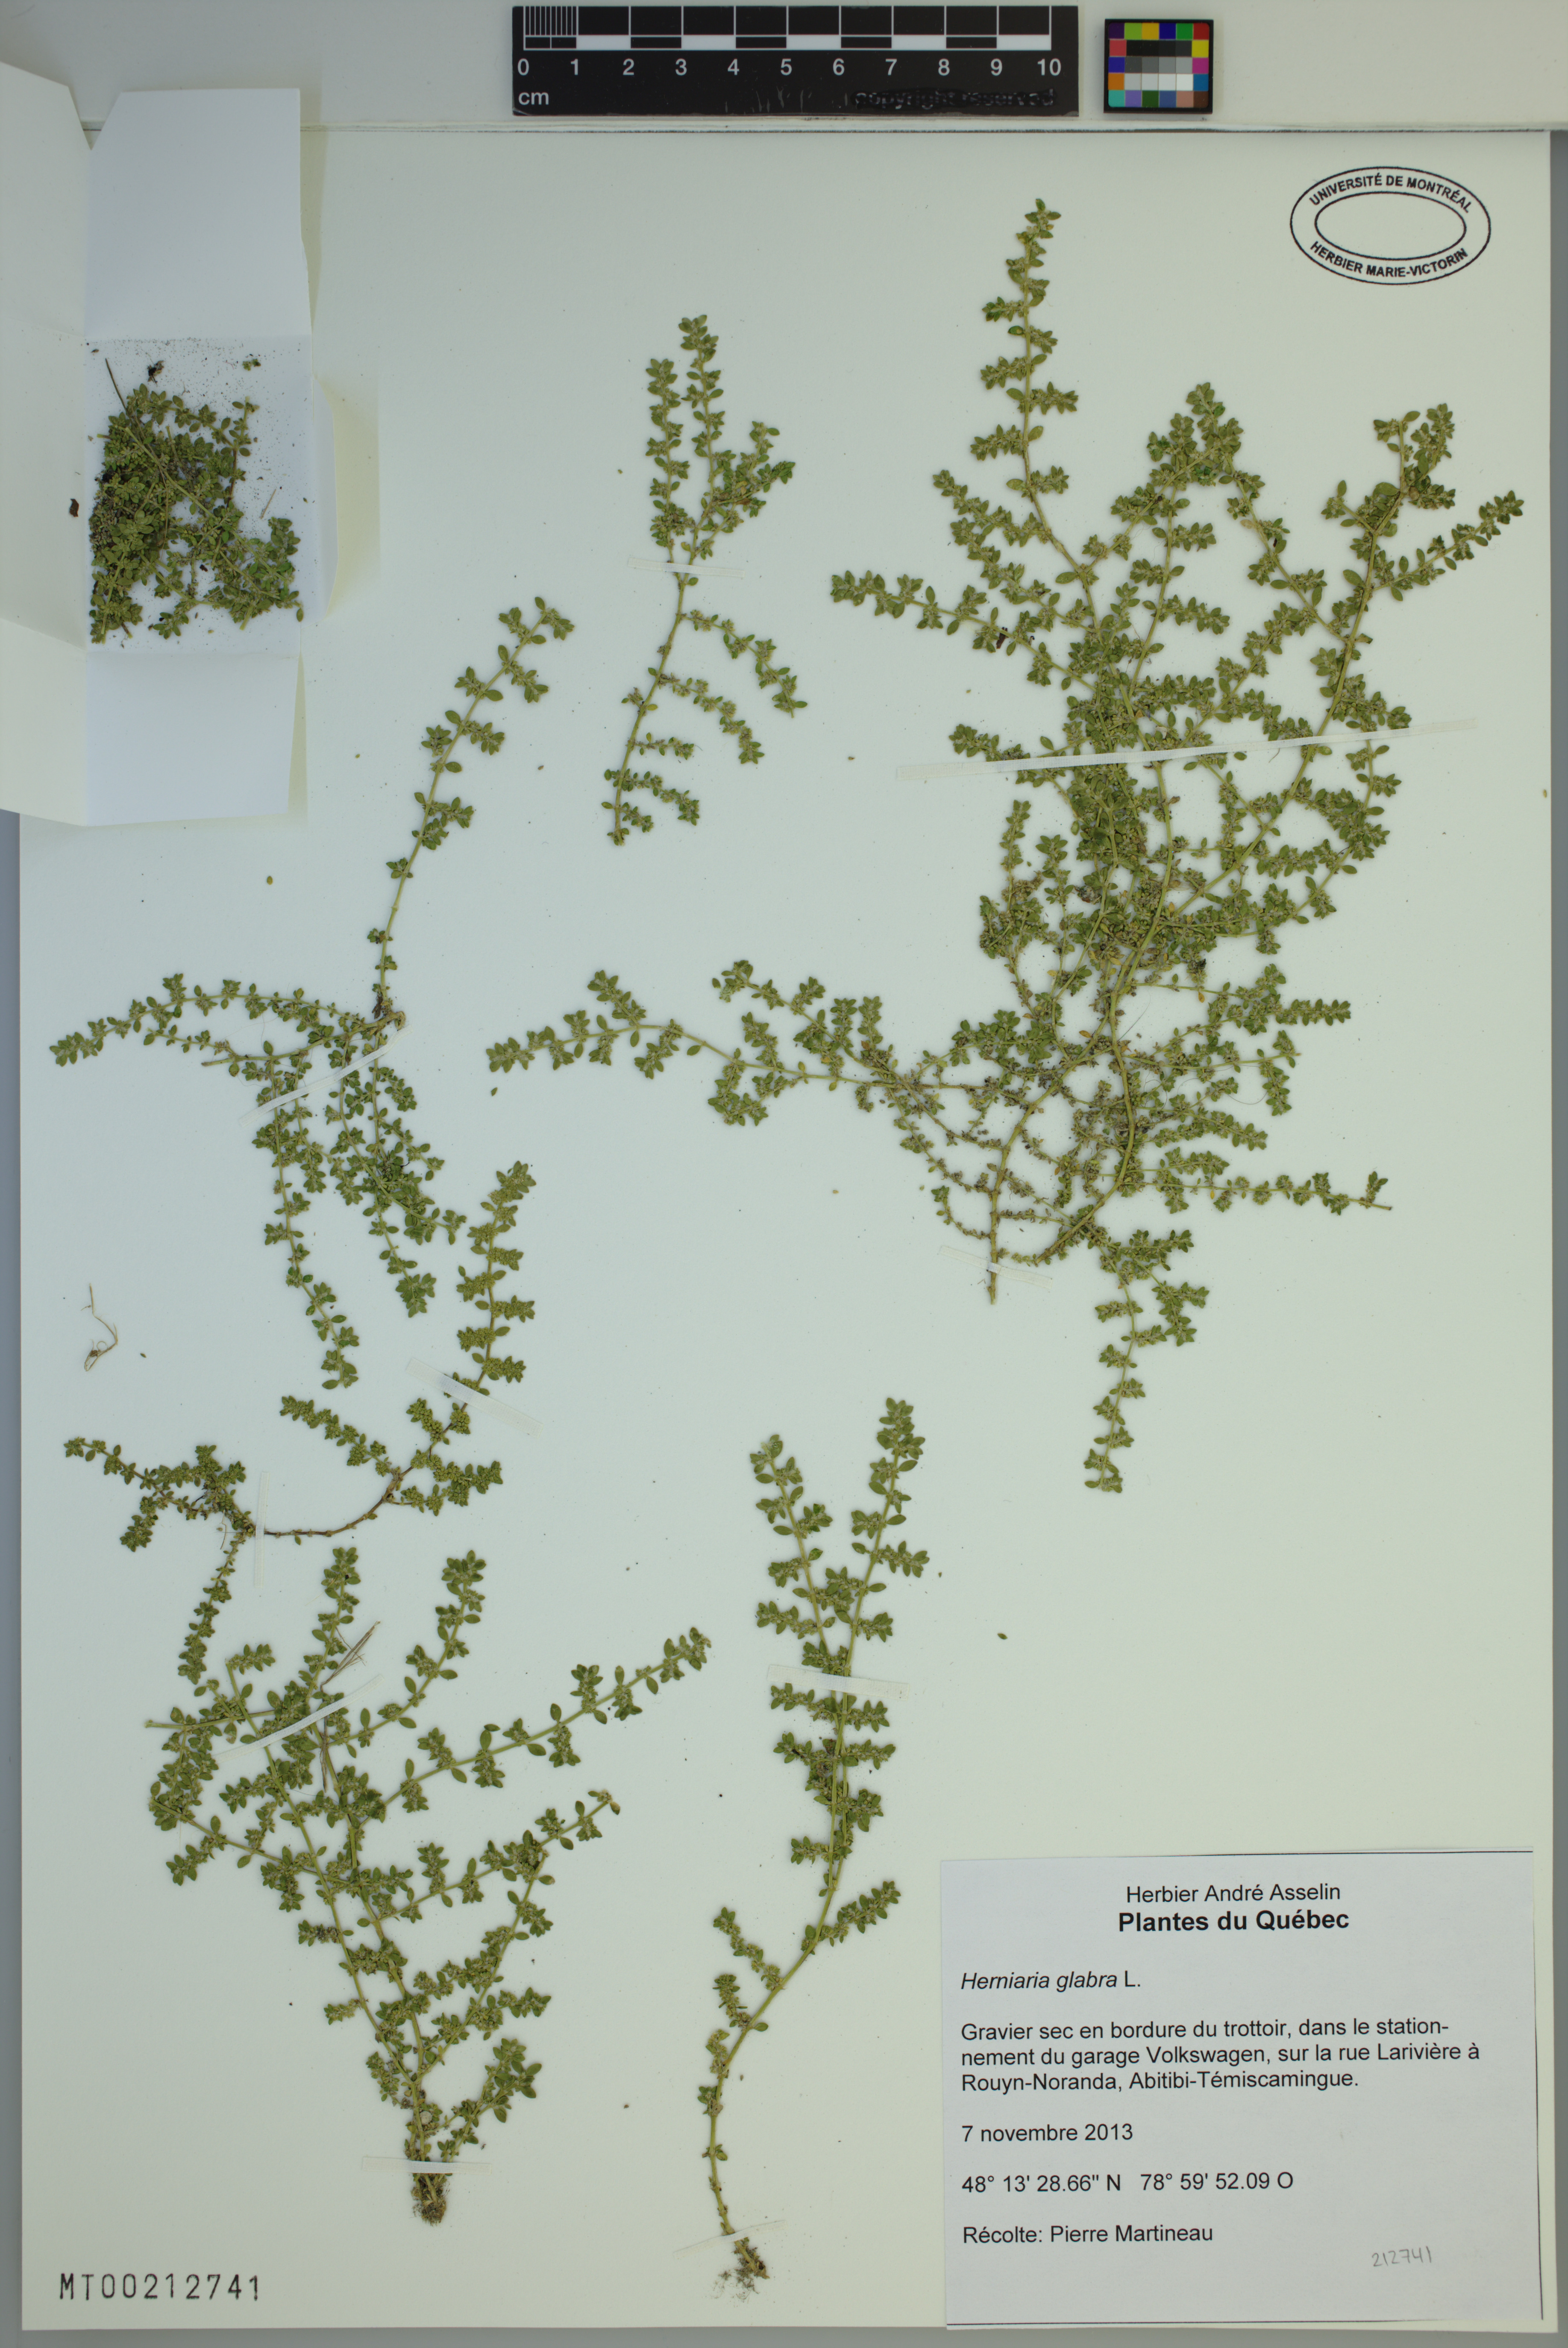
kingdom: Plantae
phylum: Tracheophyta
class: Magnoliopsida
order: Caryophyllales
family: Caryophyllaceae
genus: Herniaria
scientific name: Herniaria glabra
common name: Smooth rupturewort
